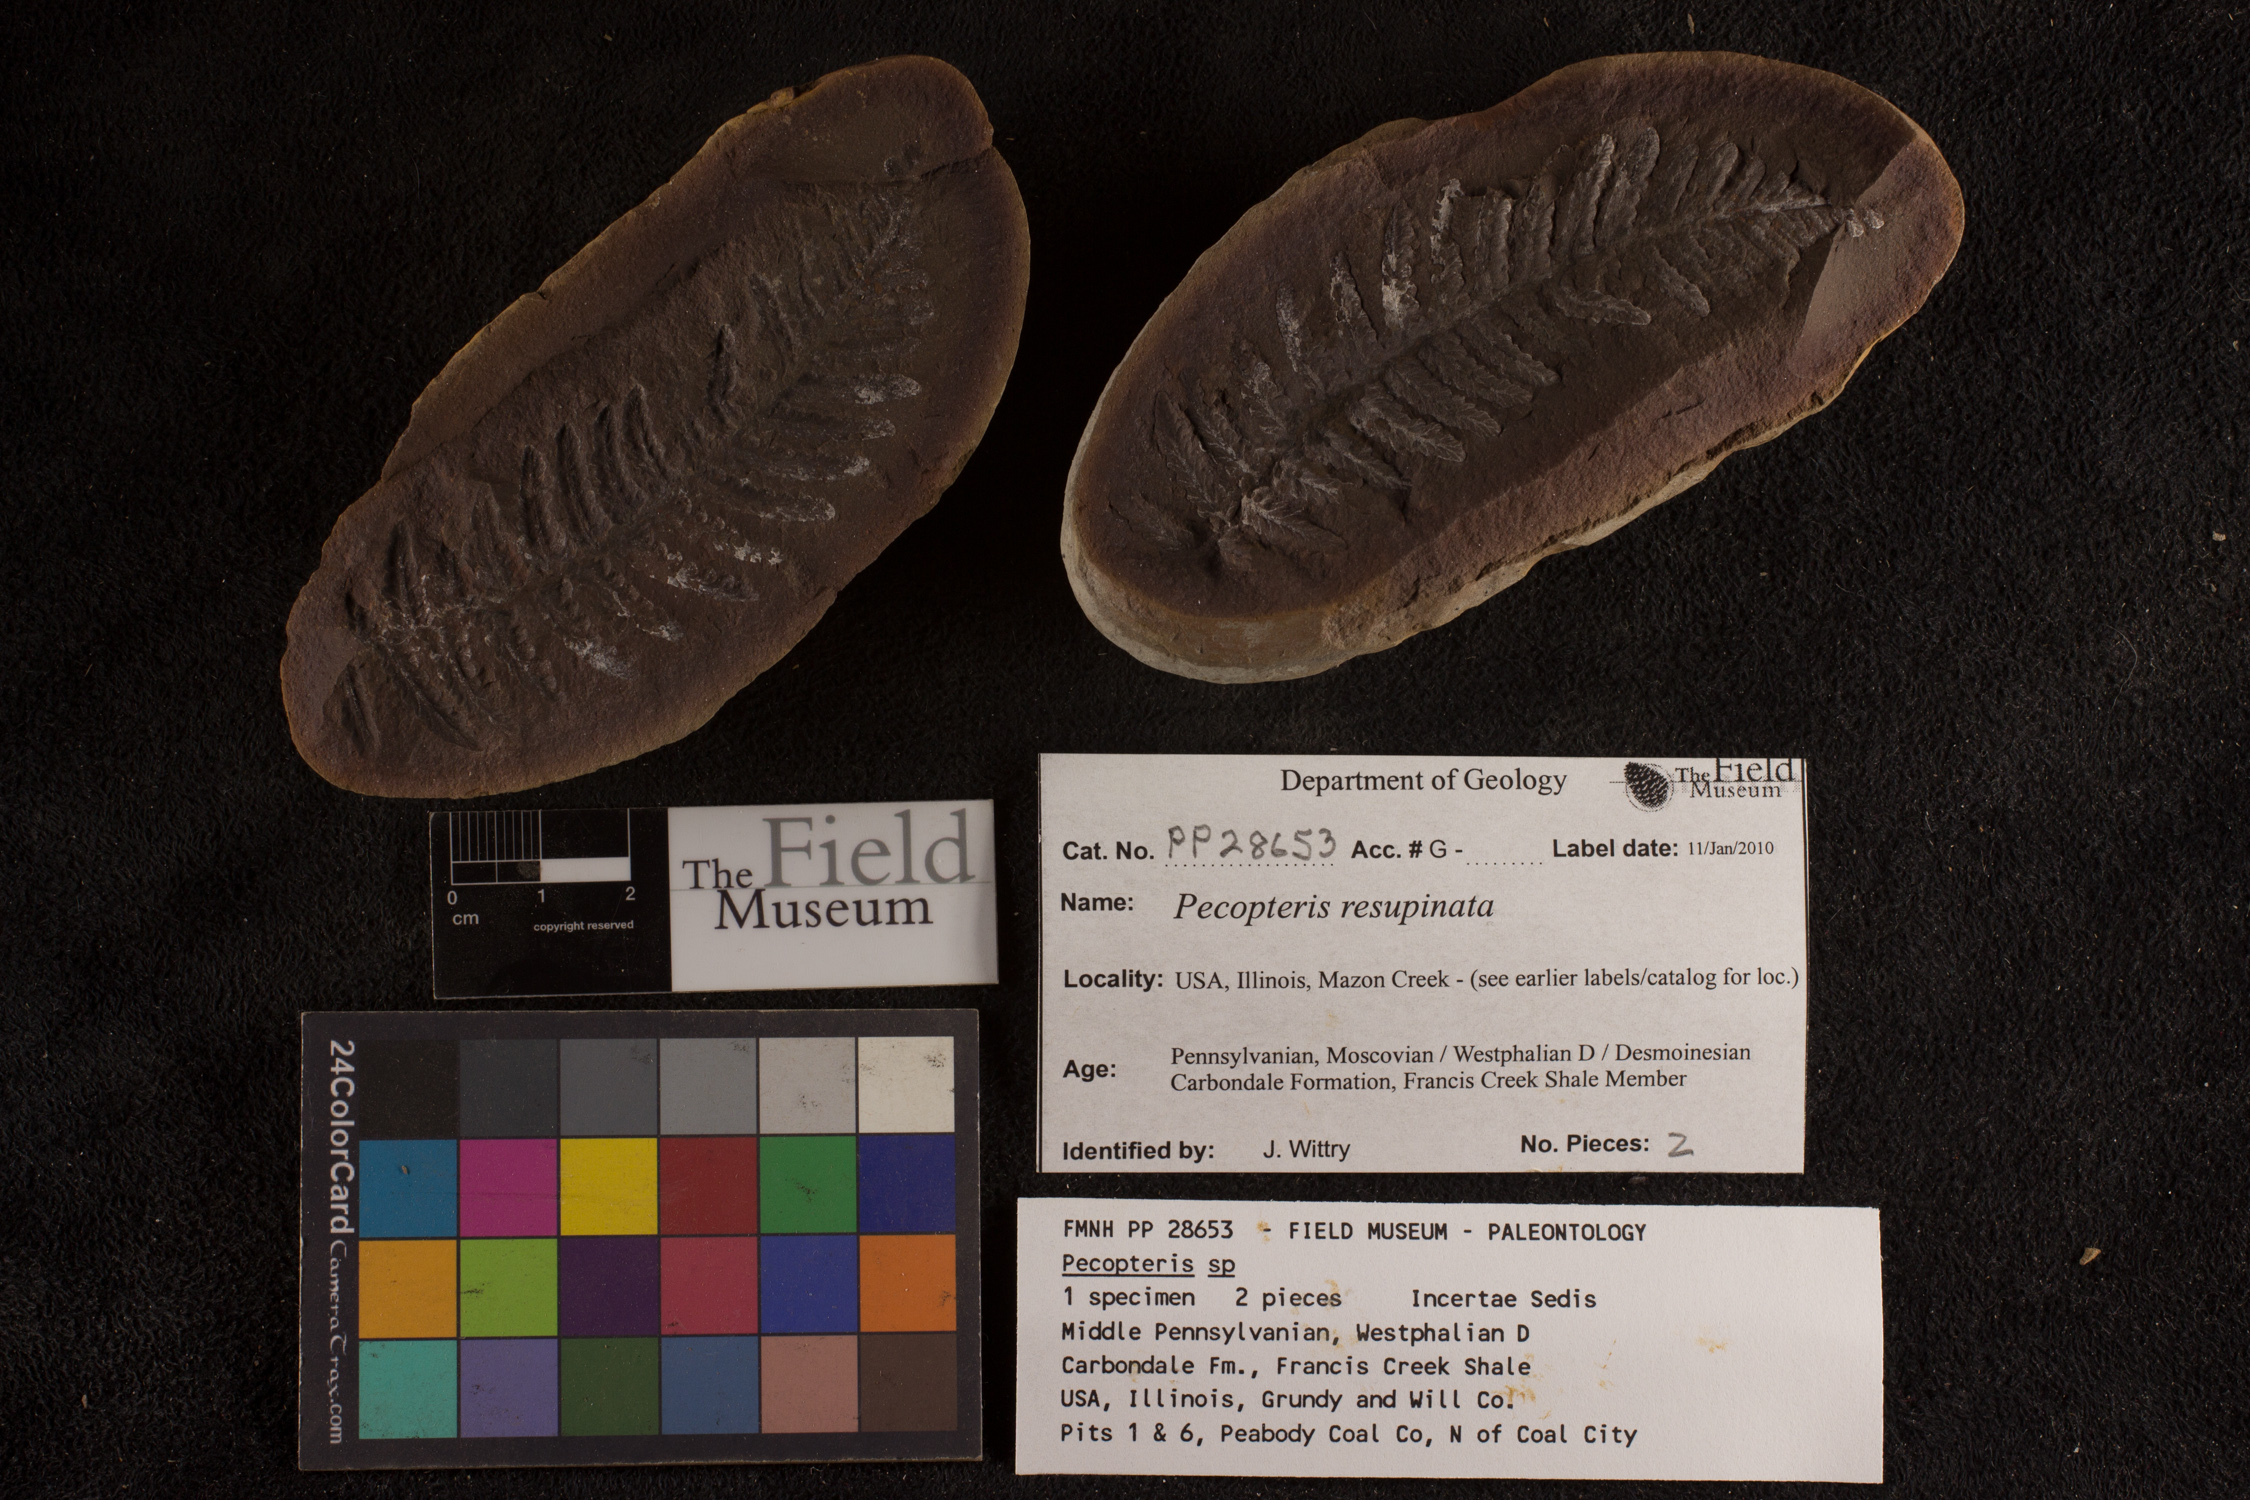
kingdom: Plantae
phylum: Tracheophyta
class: Polypodiopsida
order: Marattiales
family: Asterothecaceae
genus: Pecopteris
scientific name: Pecopteris
